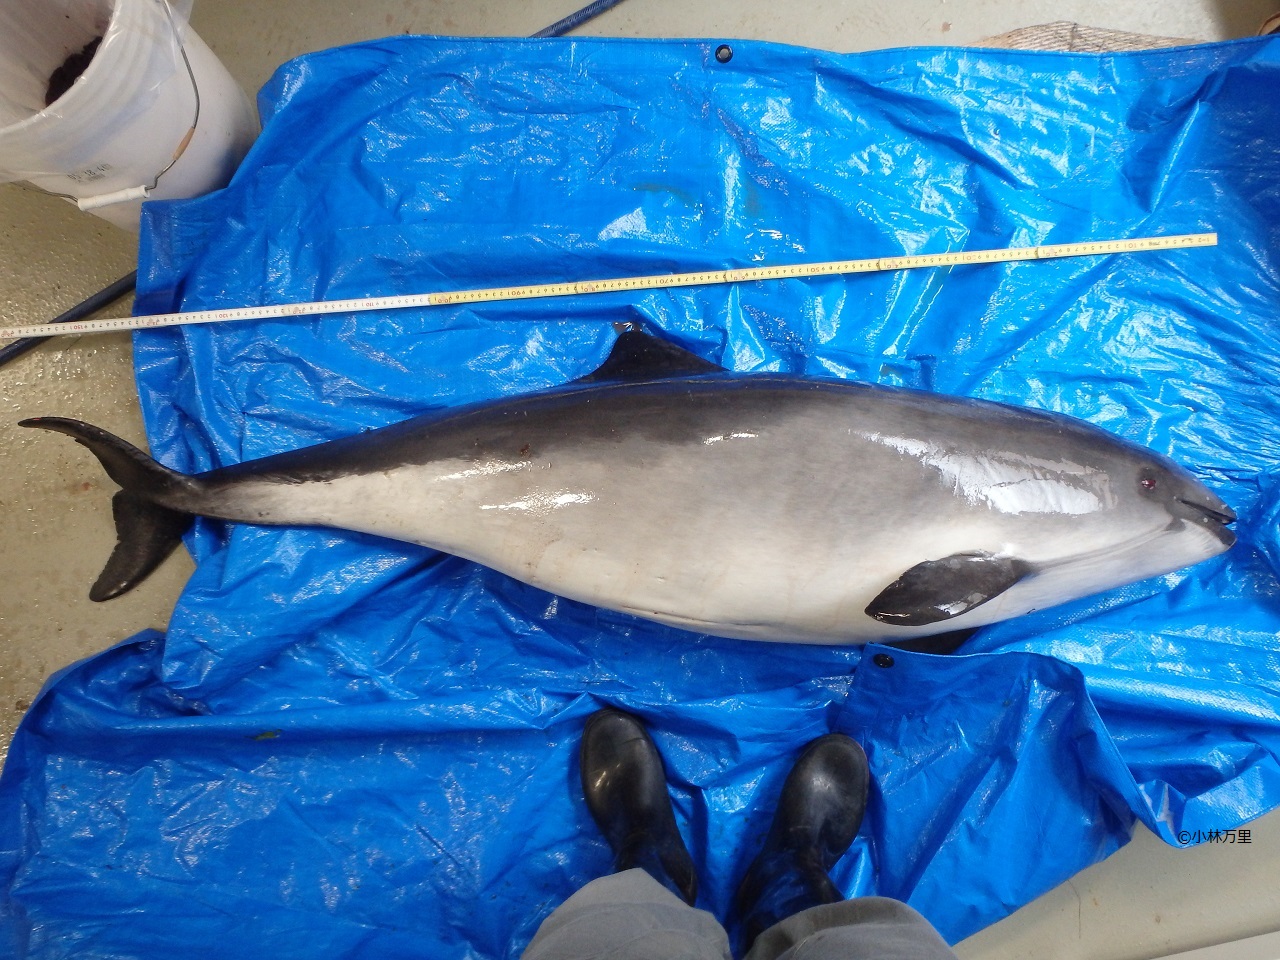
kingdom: Animalia
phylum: Chordata
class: Mammalia
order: Cetacea
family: Phocoenidae
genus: Phocoena
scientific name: Phocoena phocoena
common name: Harbour porpoise
